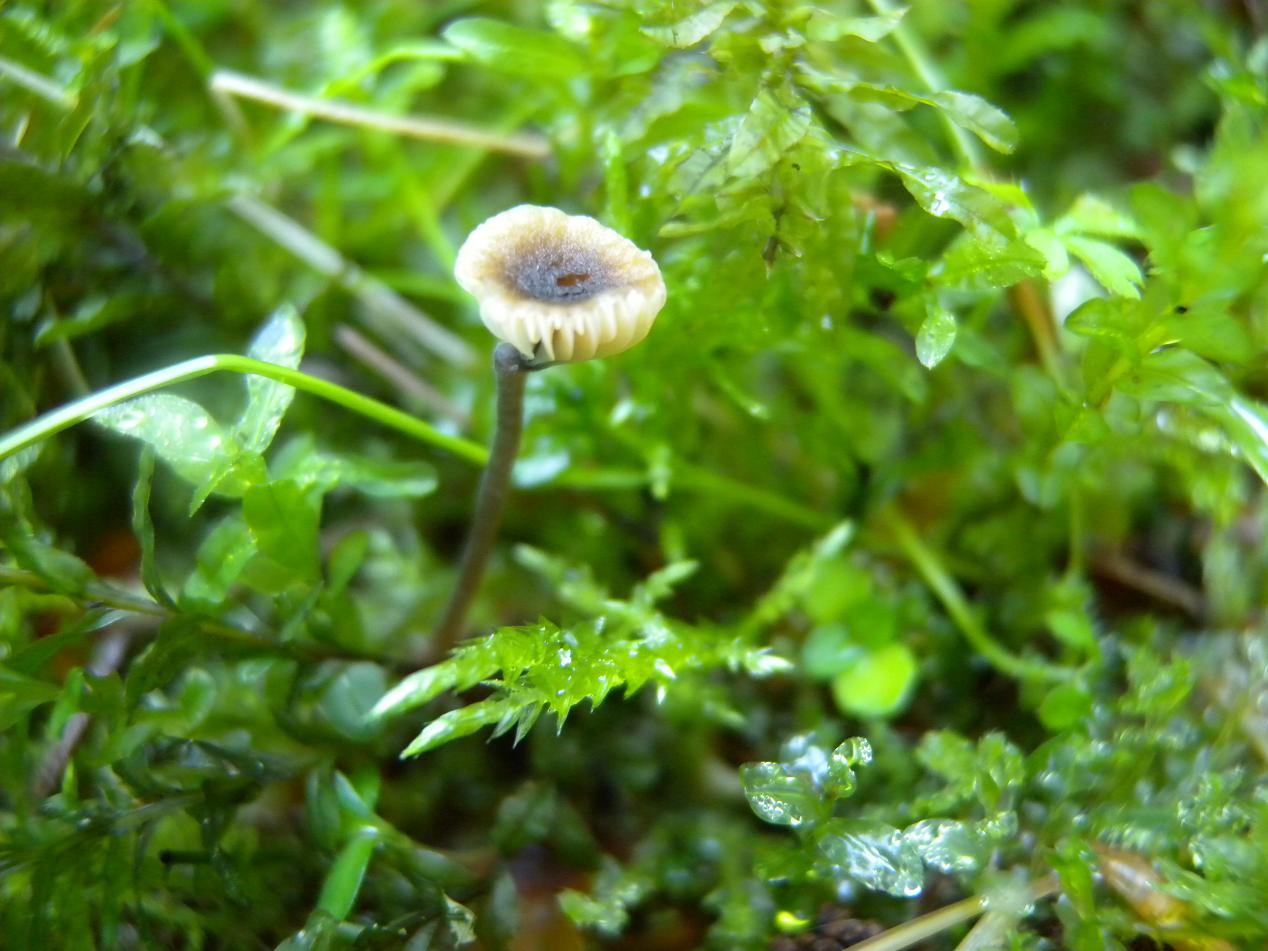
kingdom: Fungi
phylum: Basidiomycota
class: Agaricomycetes
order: Hymenochaetales
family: Rickenellaceae
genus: Rickenella
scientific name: Rickenella swartzii
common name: finstokket mosnavlehat
